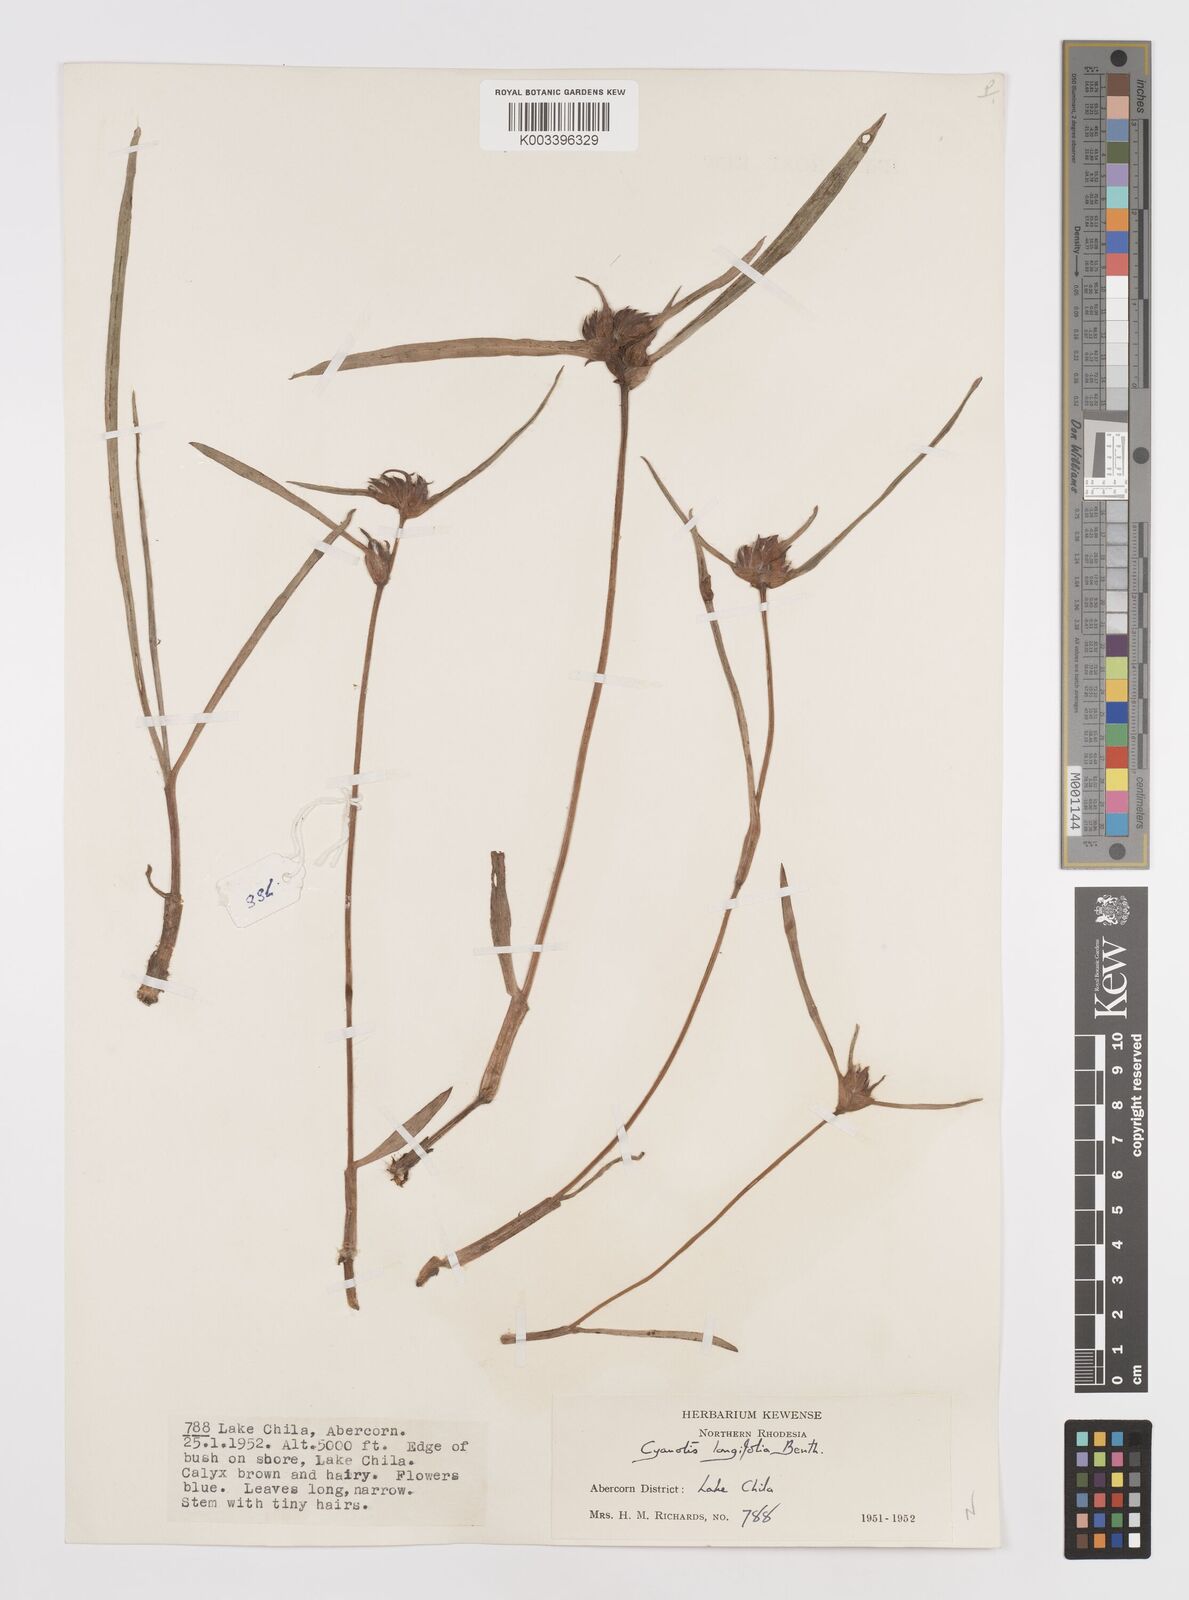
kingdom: Plantae
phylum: Tracheophyta
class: Liliopsida
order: Commelinales
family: Commelinaceae
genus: Cyanotis
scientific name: Cyanotis longifolia
